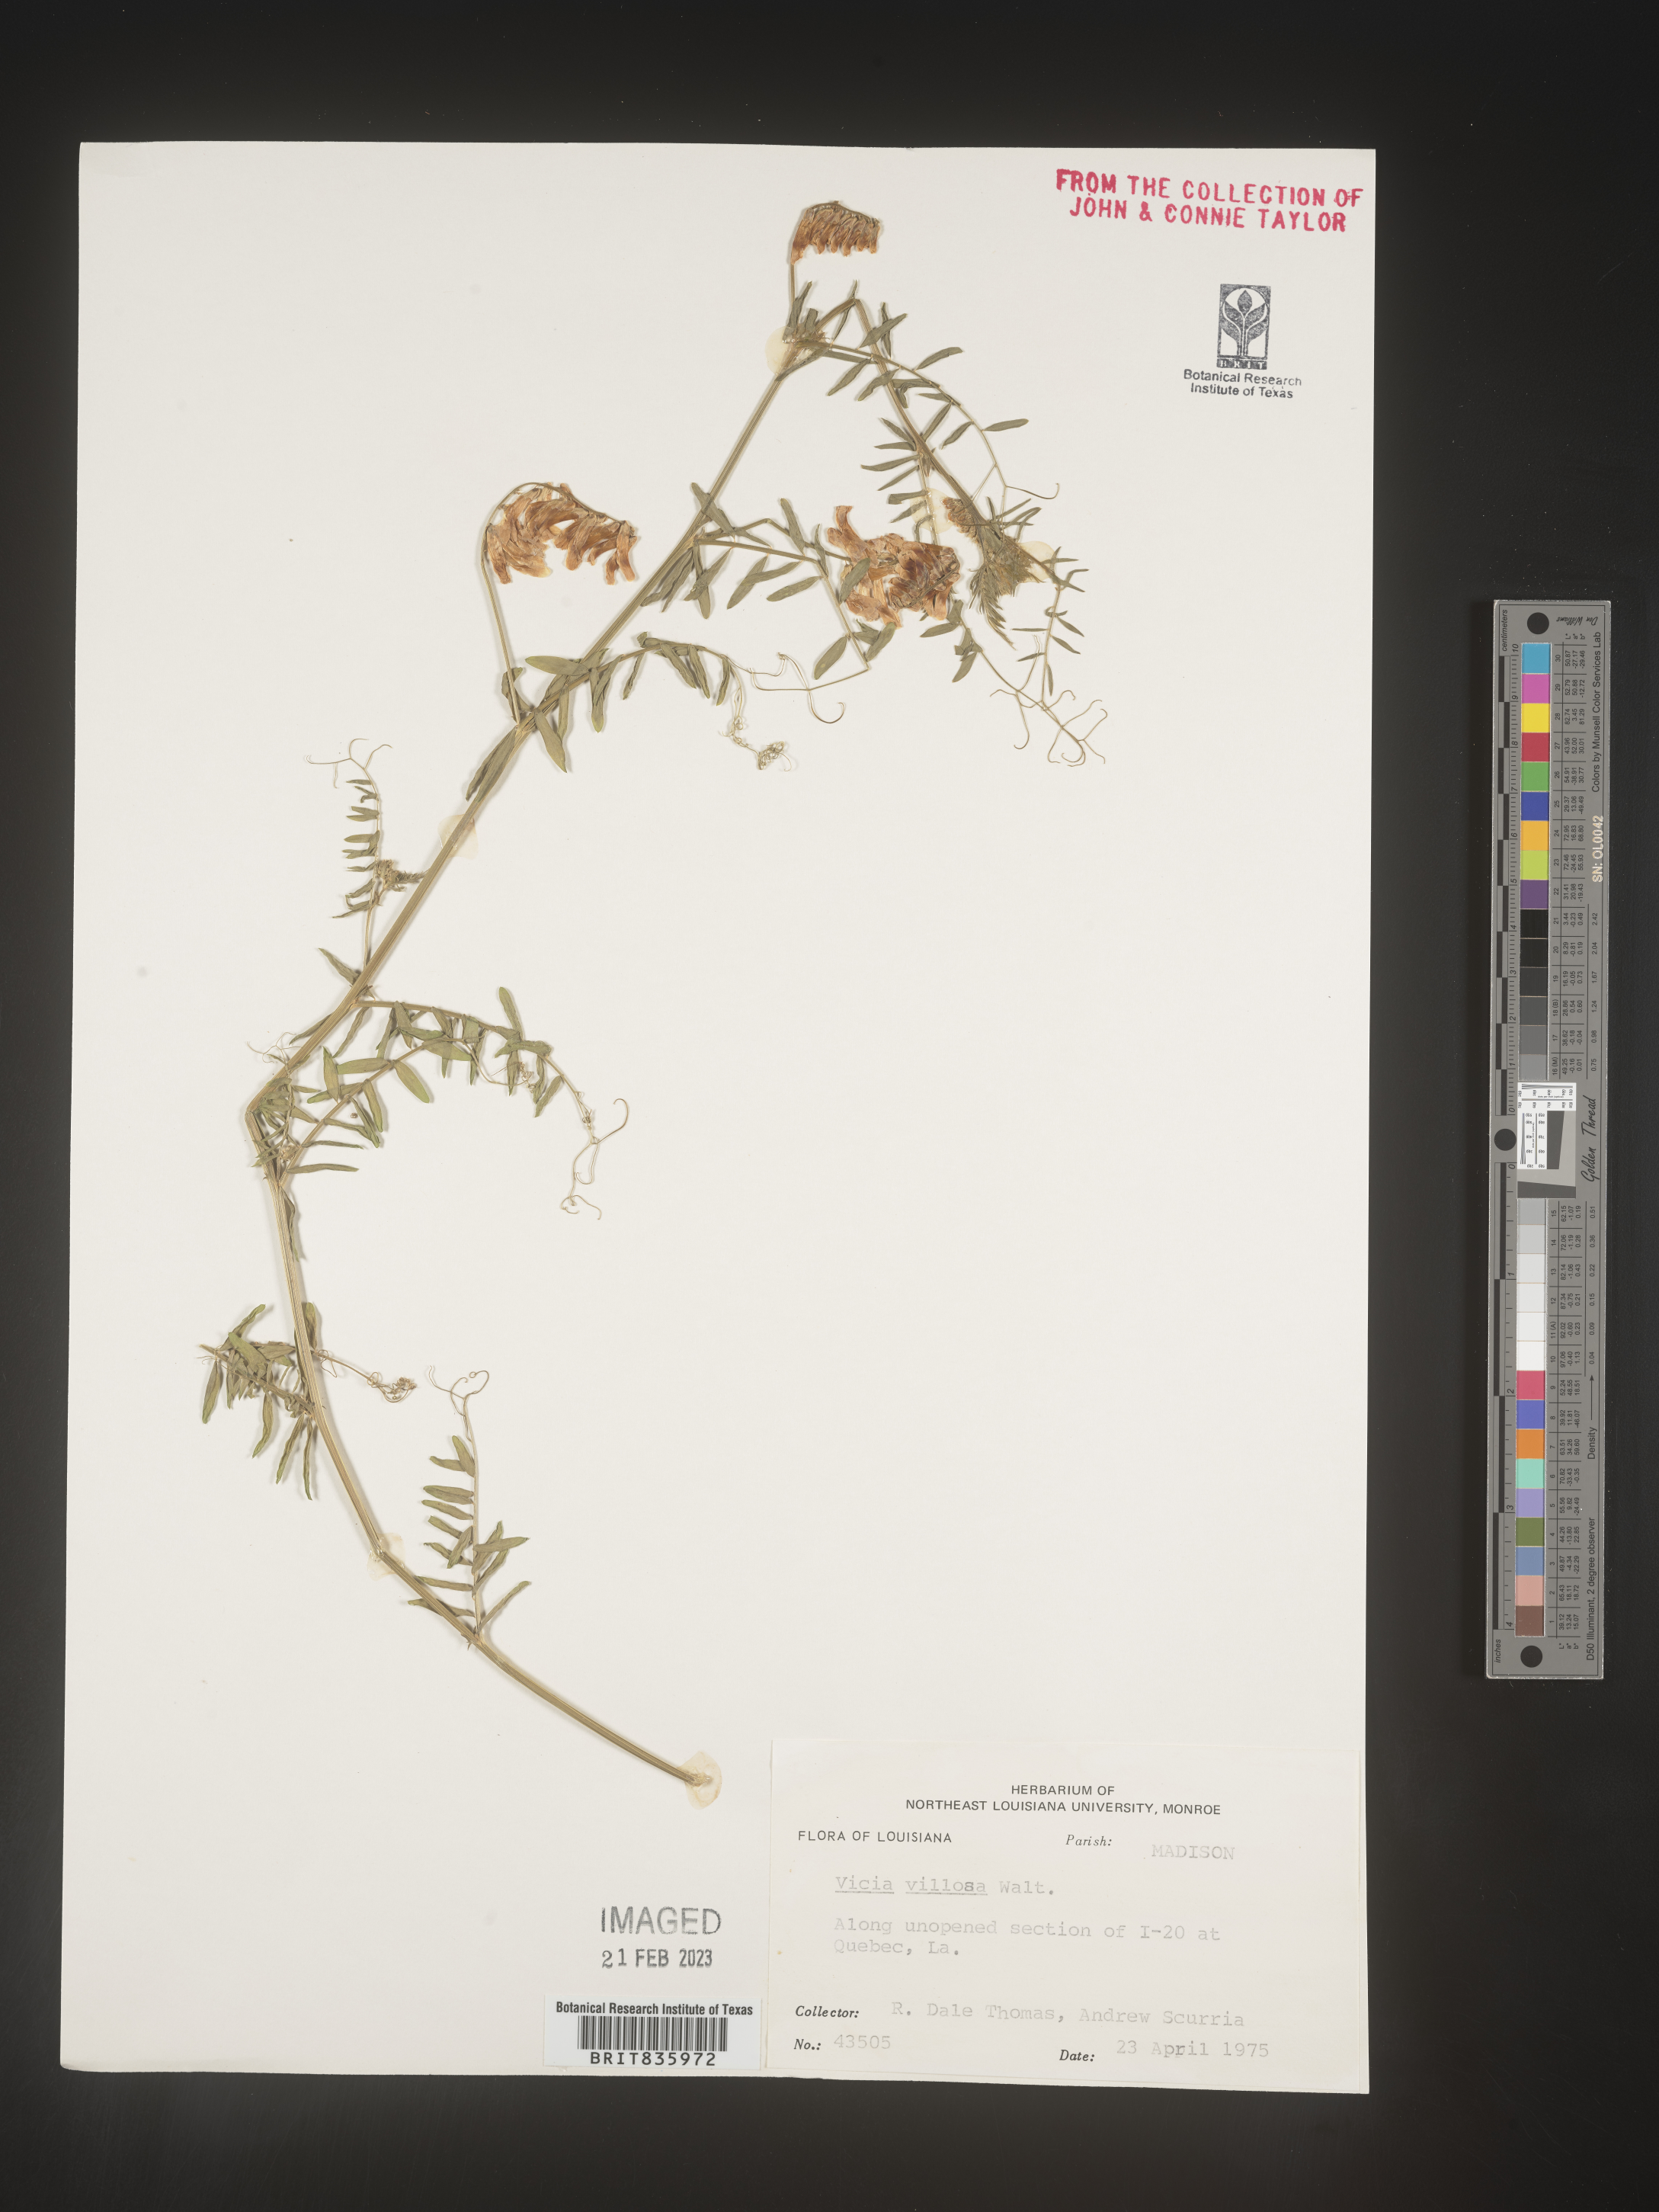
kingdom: Plantae
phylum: Tracheophyta
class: Magnoliopsida
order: Fabales
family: Fabaceae
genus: Vicia
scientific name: Vicia villosa
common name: Fodder vetch
